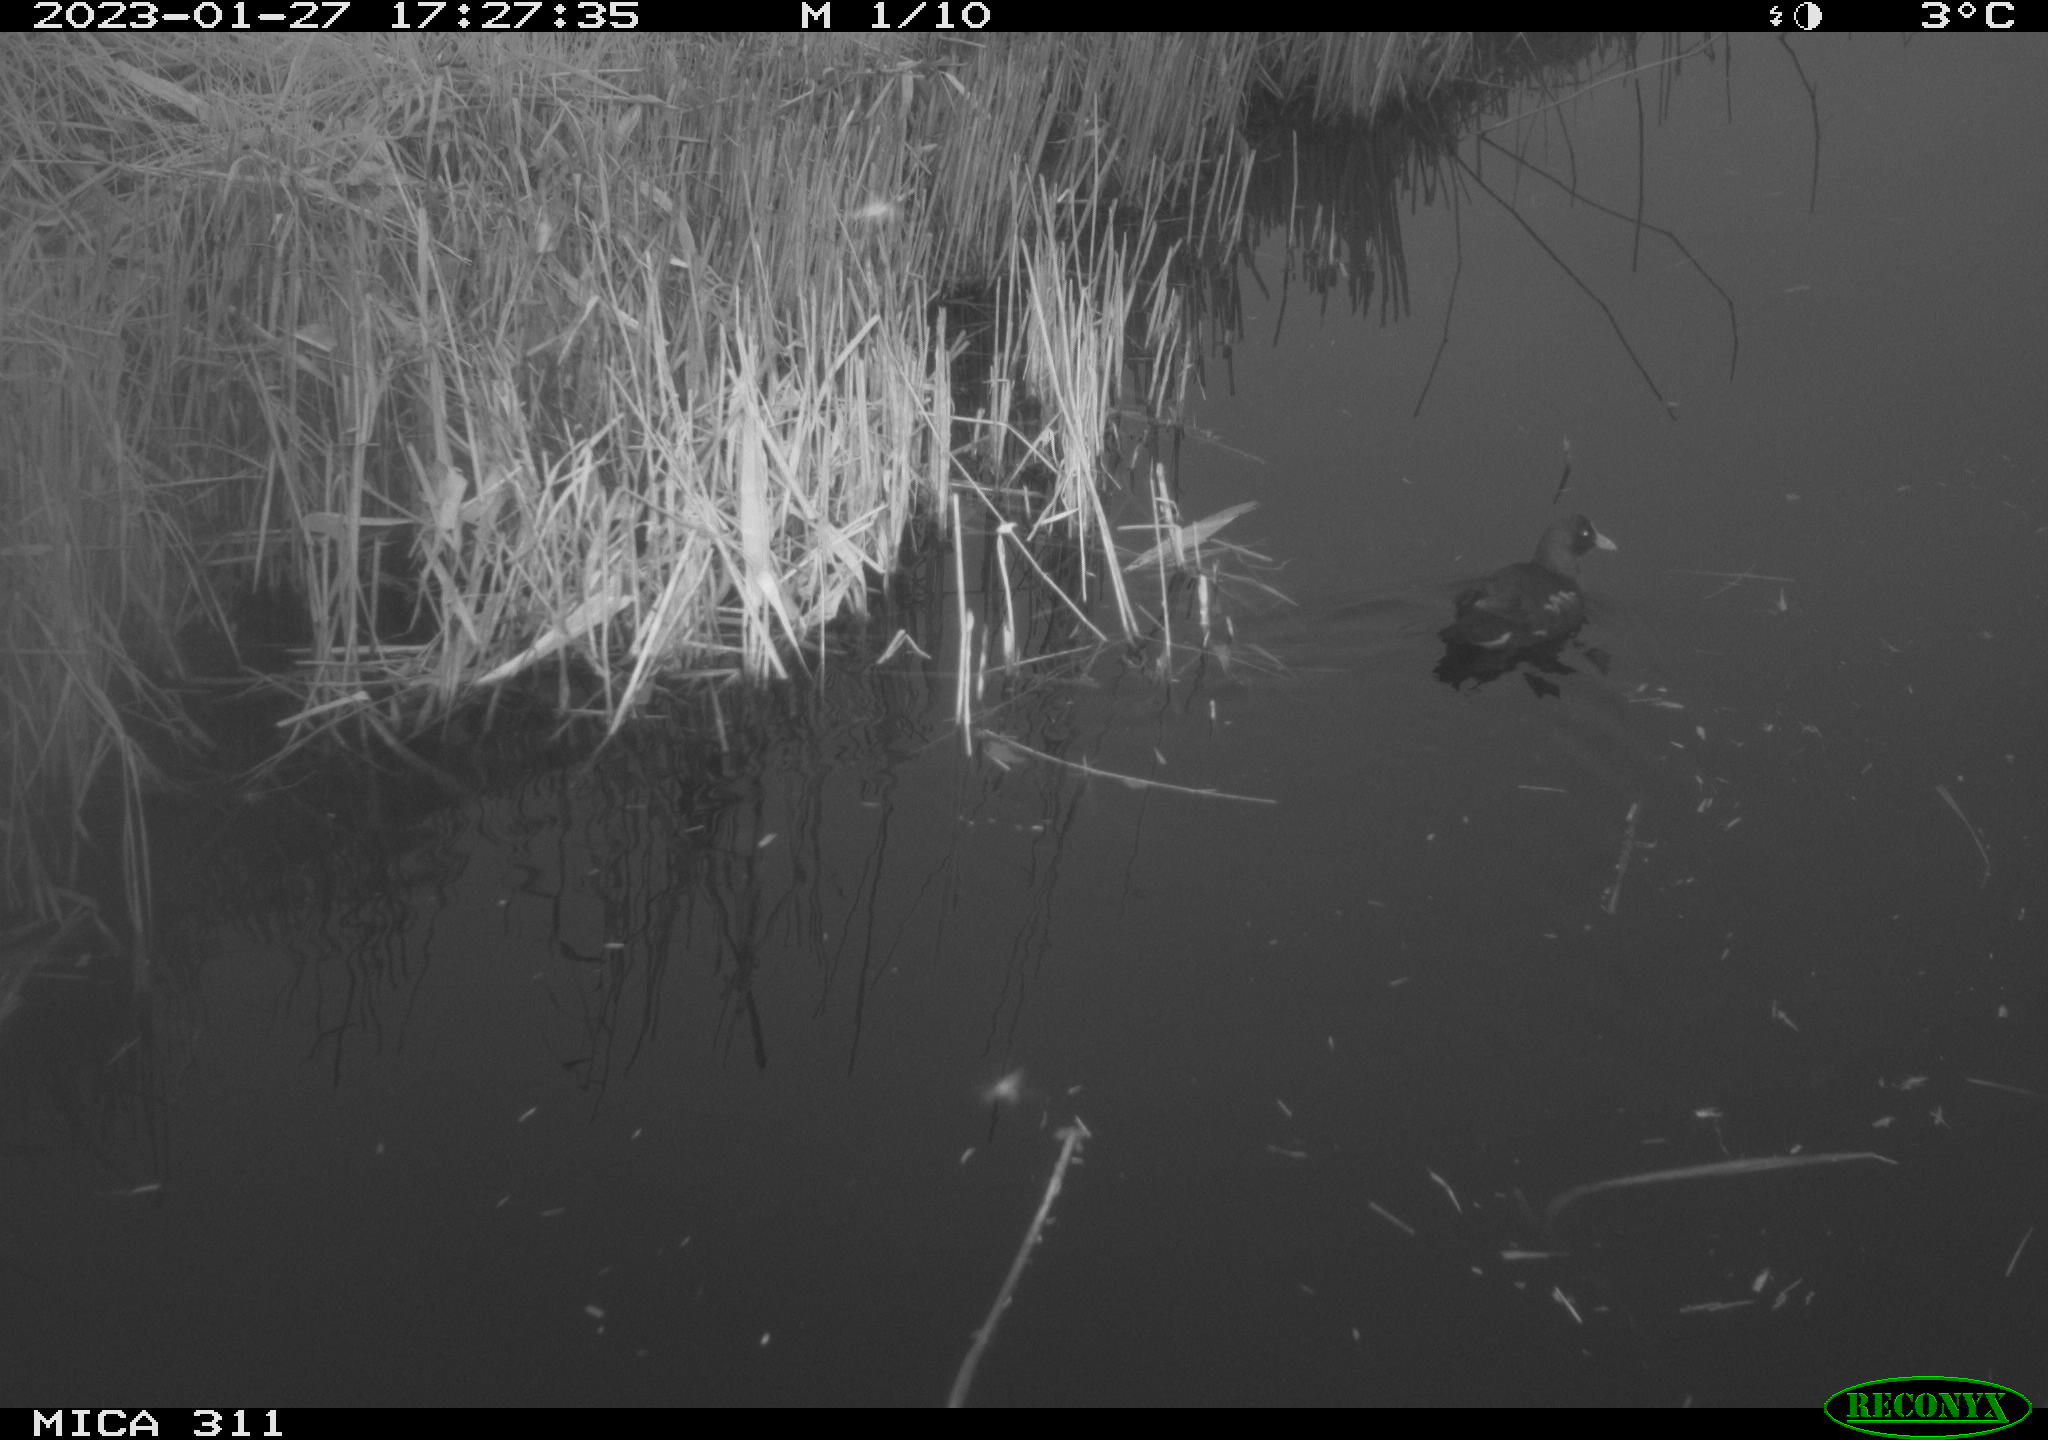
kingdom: Animalia
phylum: Chordata
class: Aves
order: Gruiformes
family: Rallidae
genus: Gallinula
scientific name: Gallinula chloropus
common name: Common moorhen
